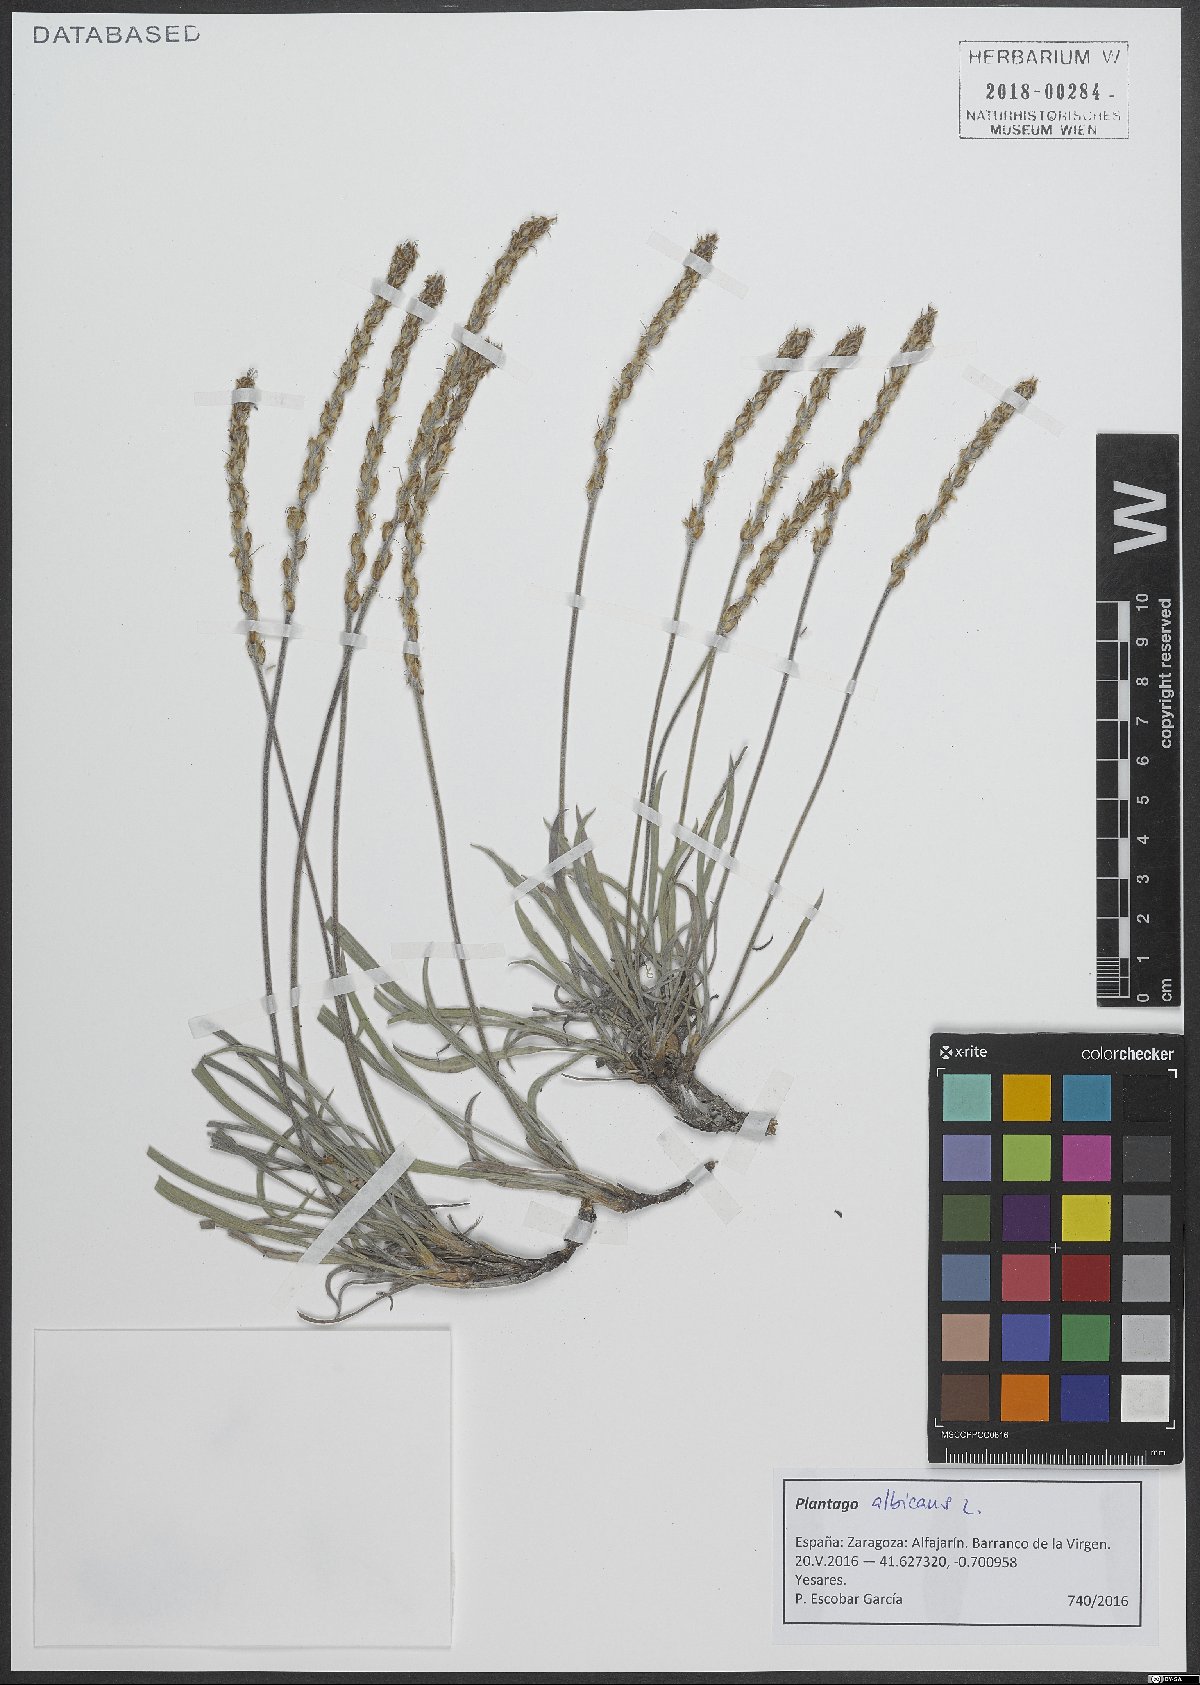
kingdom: Plantae
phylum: Tracheophyta
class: Magnoliopsida
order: Lamiales
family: Plantaginaceae
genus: Plantago
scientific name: Plantago albicans
